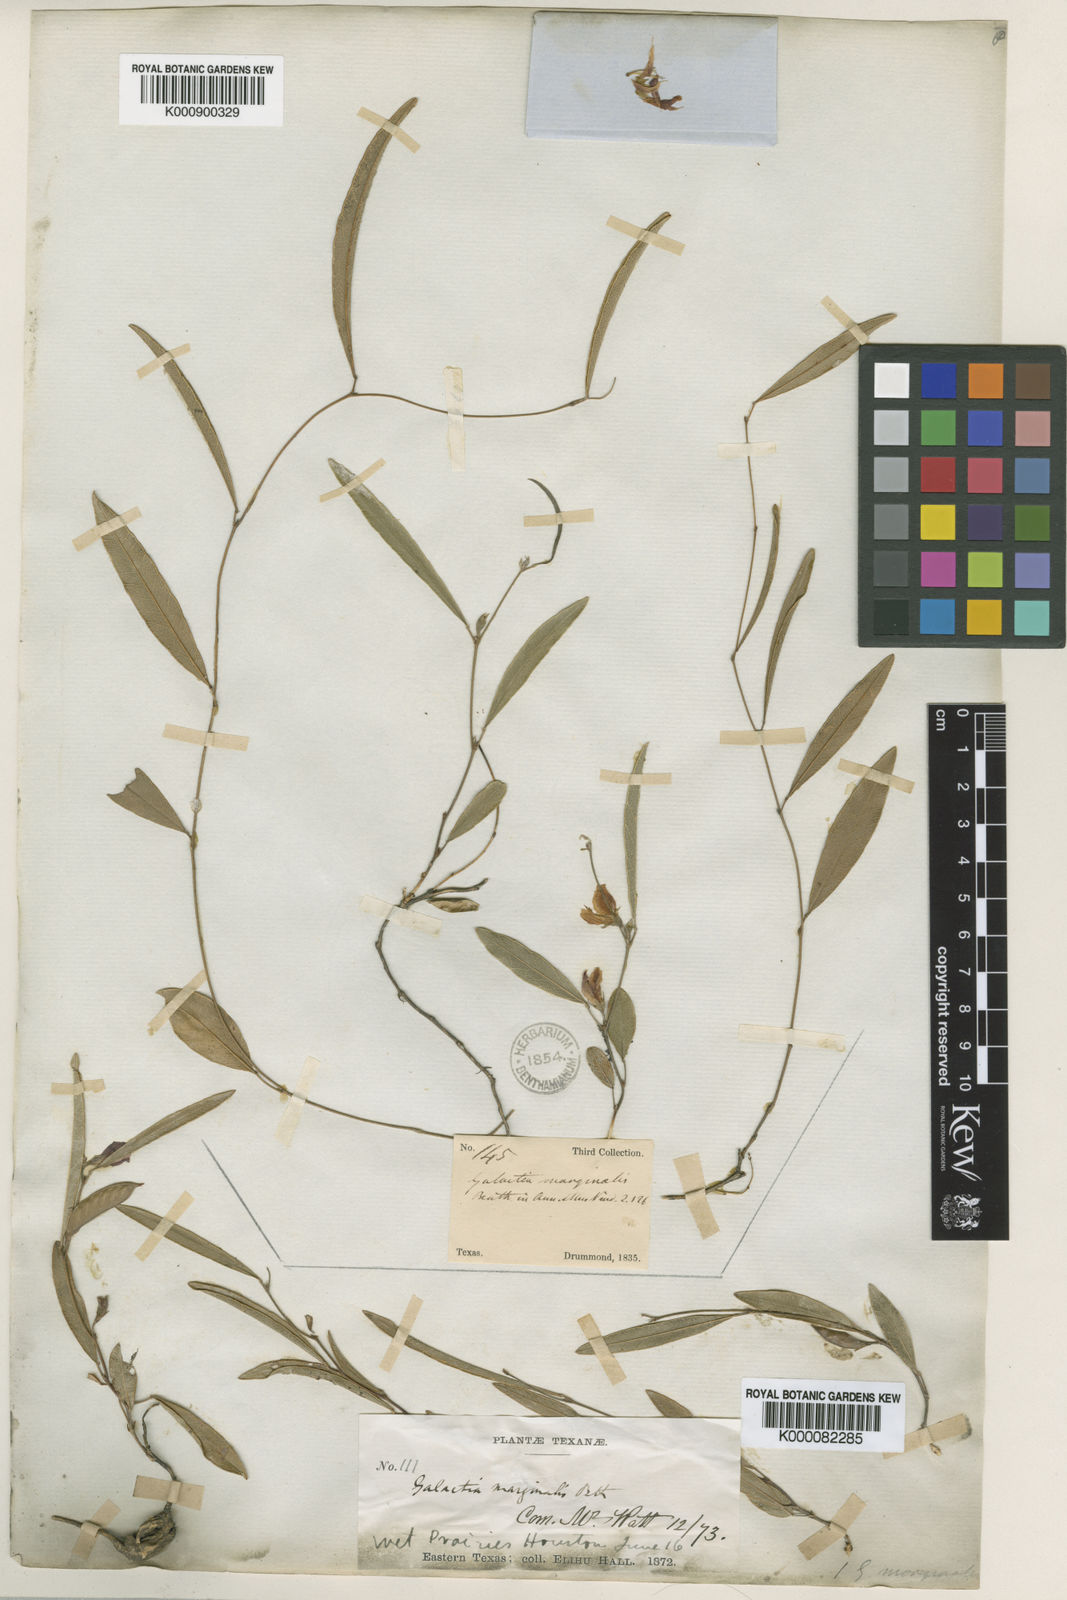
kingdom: Plantae
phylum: Tracheophyta
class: Magnoliopsida
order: Fabales
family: Fabaceae
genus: Nanogalactia
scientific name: Nanogalactia heterophylla
